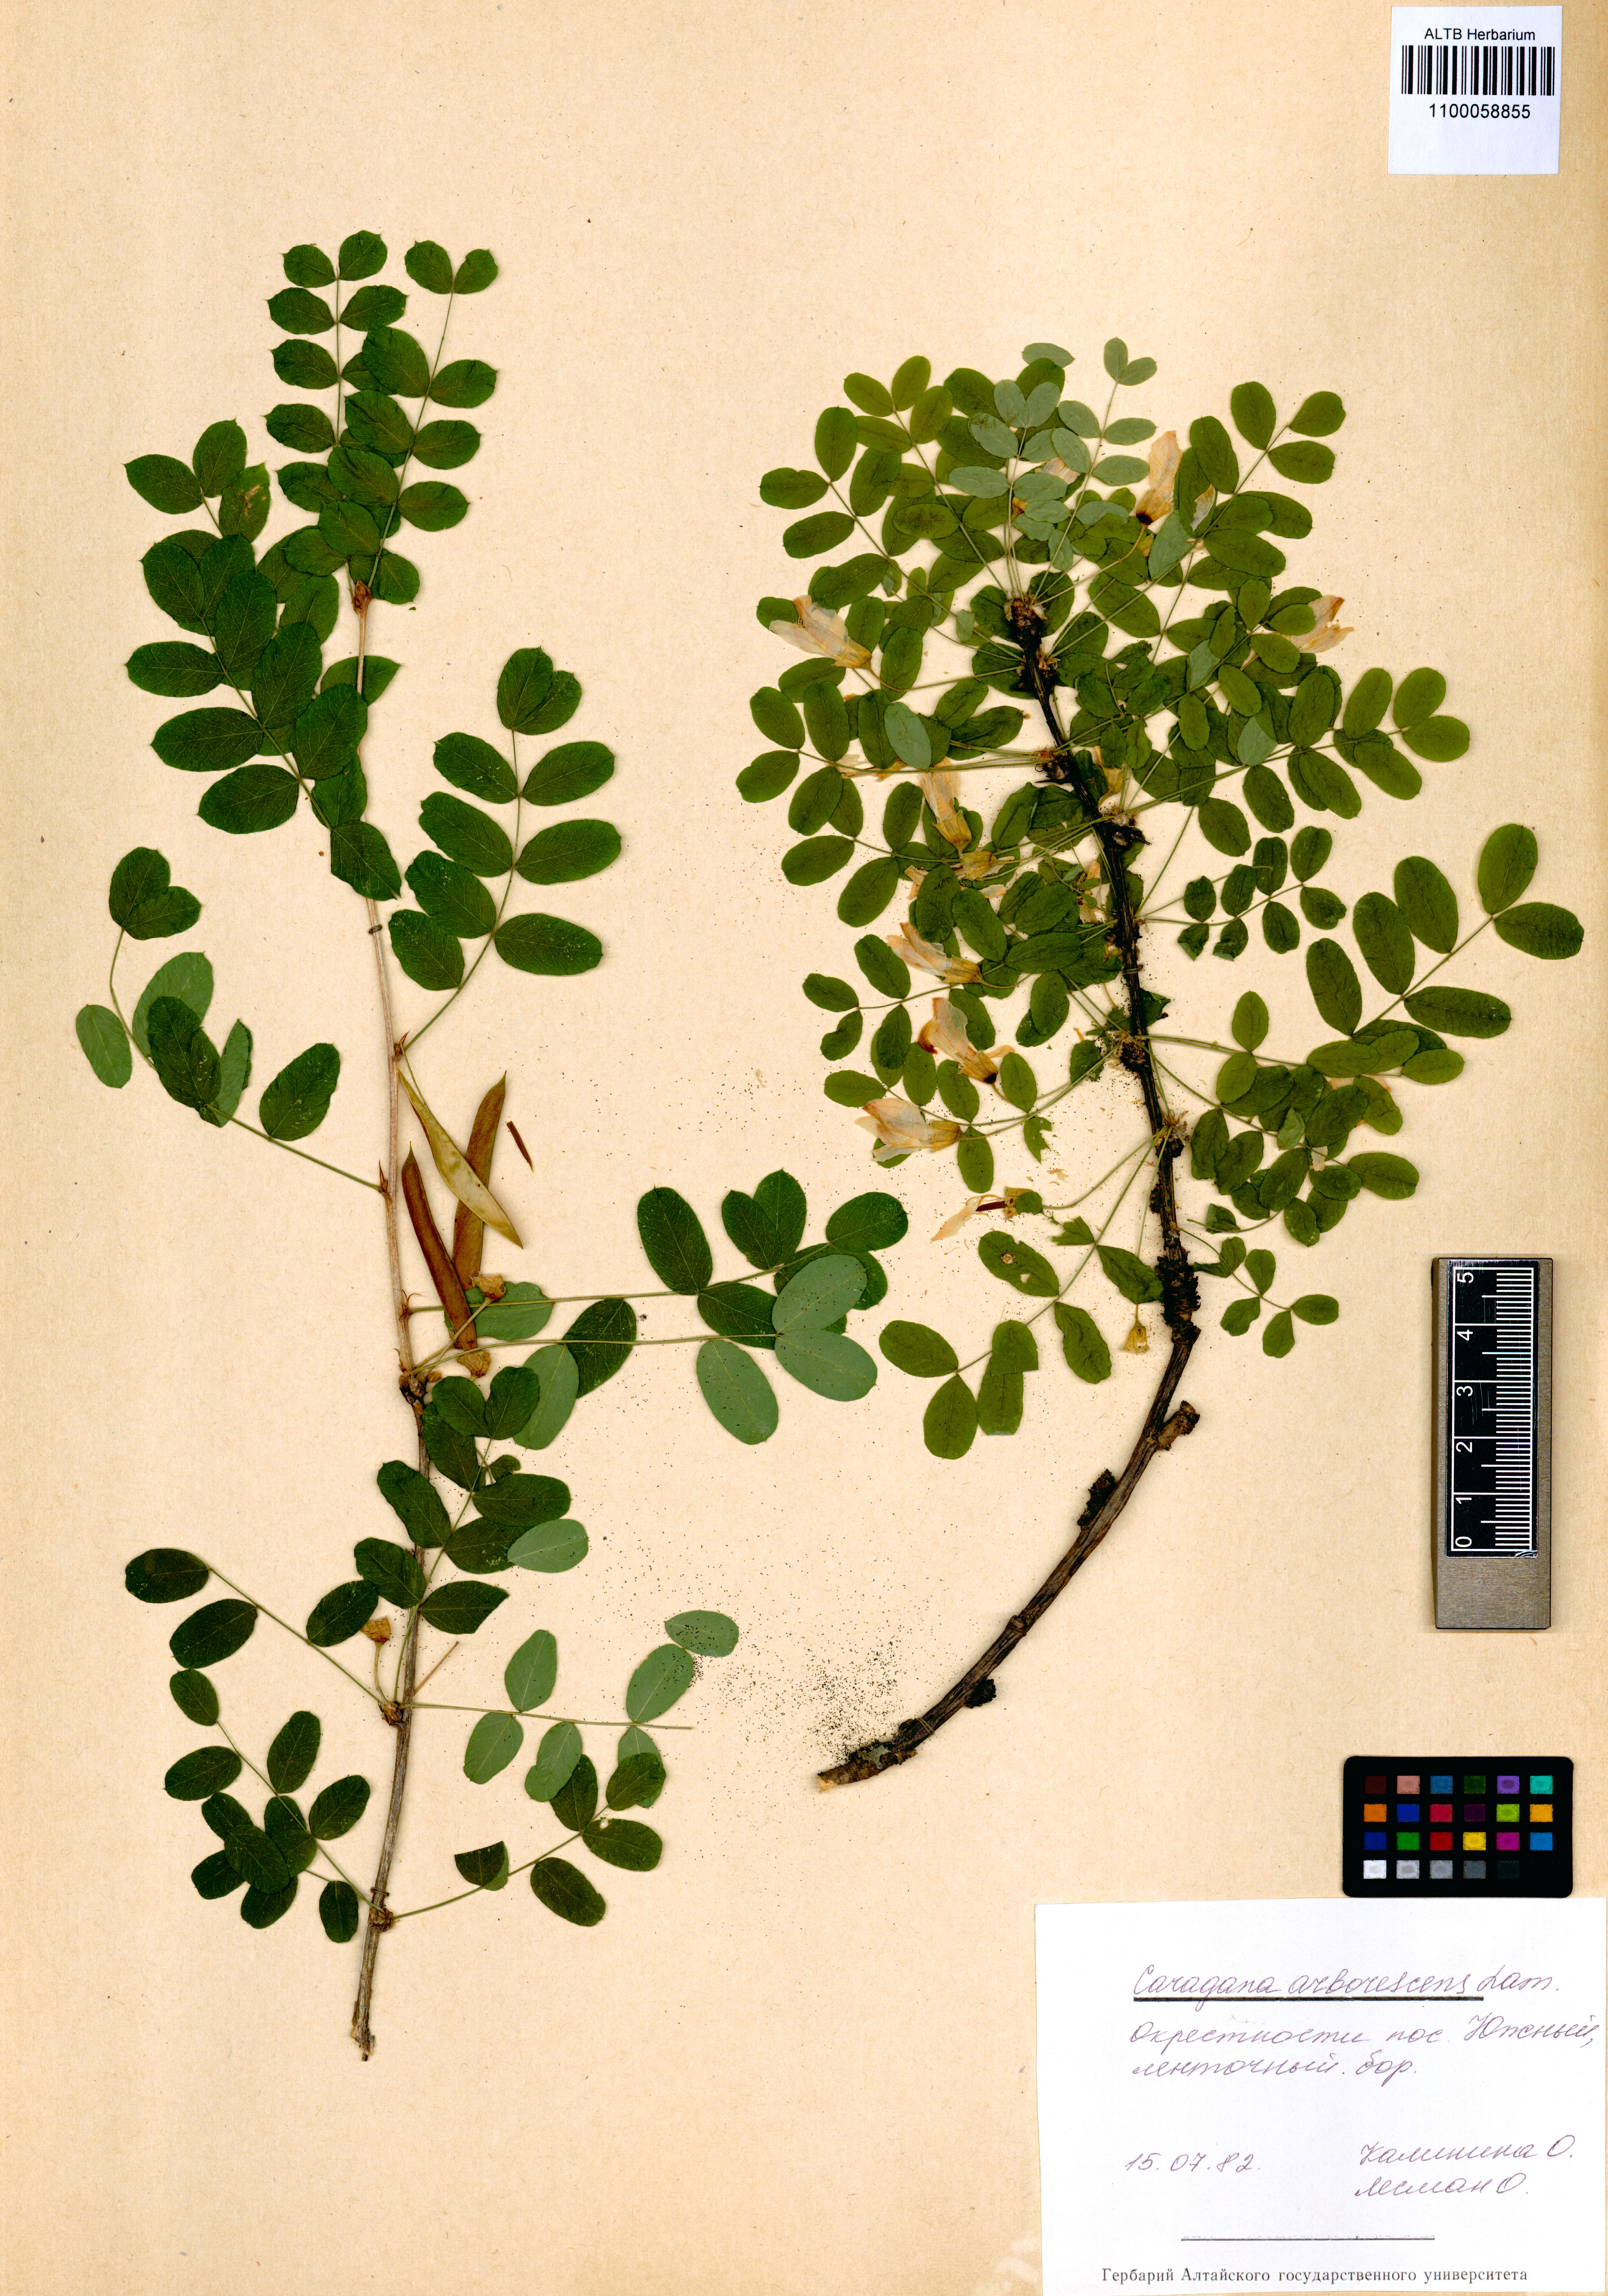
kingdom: Plantae
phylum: Tracheophyta
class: Magnoliopsida
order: Fabales
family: Fabaceae
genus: Caragana
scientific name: Caragana arborescens
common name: Siberian peashrub
